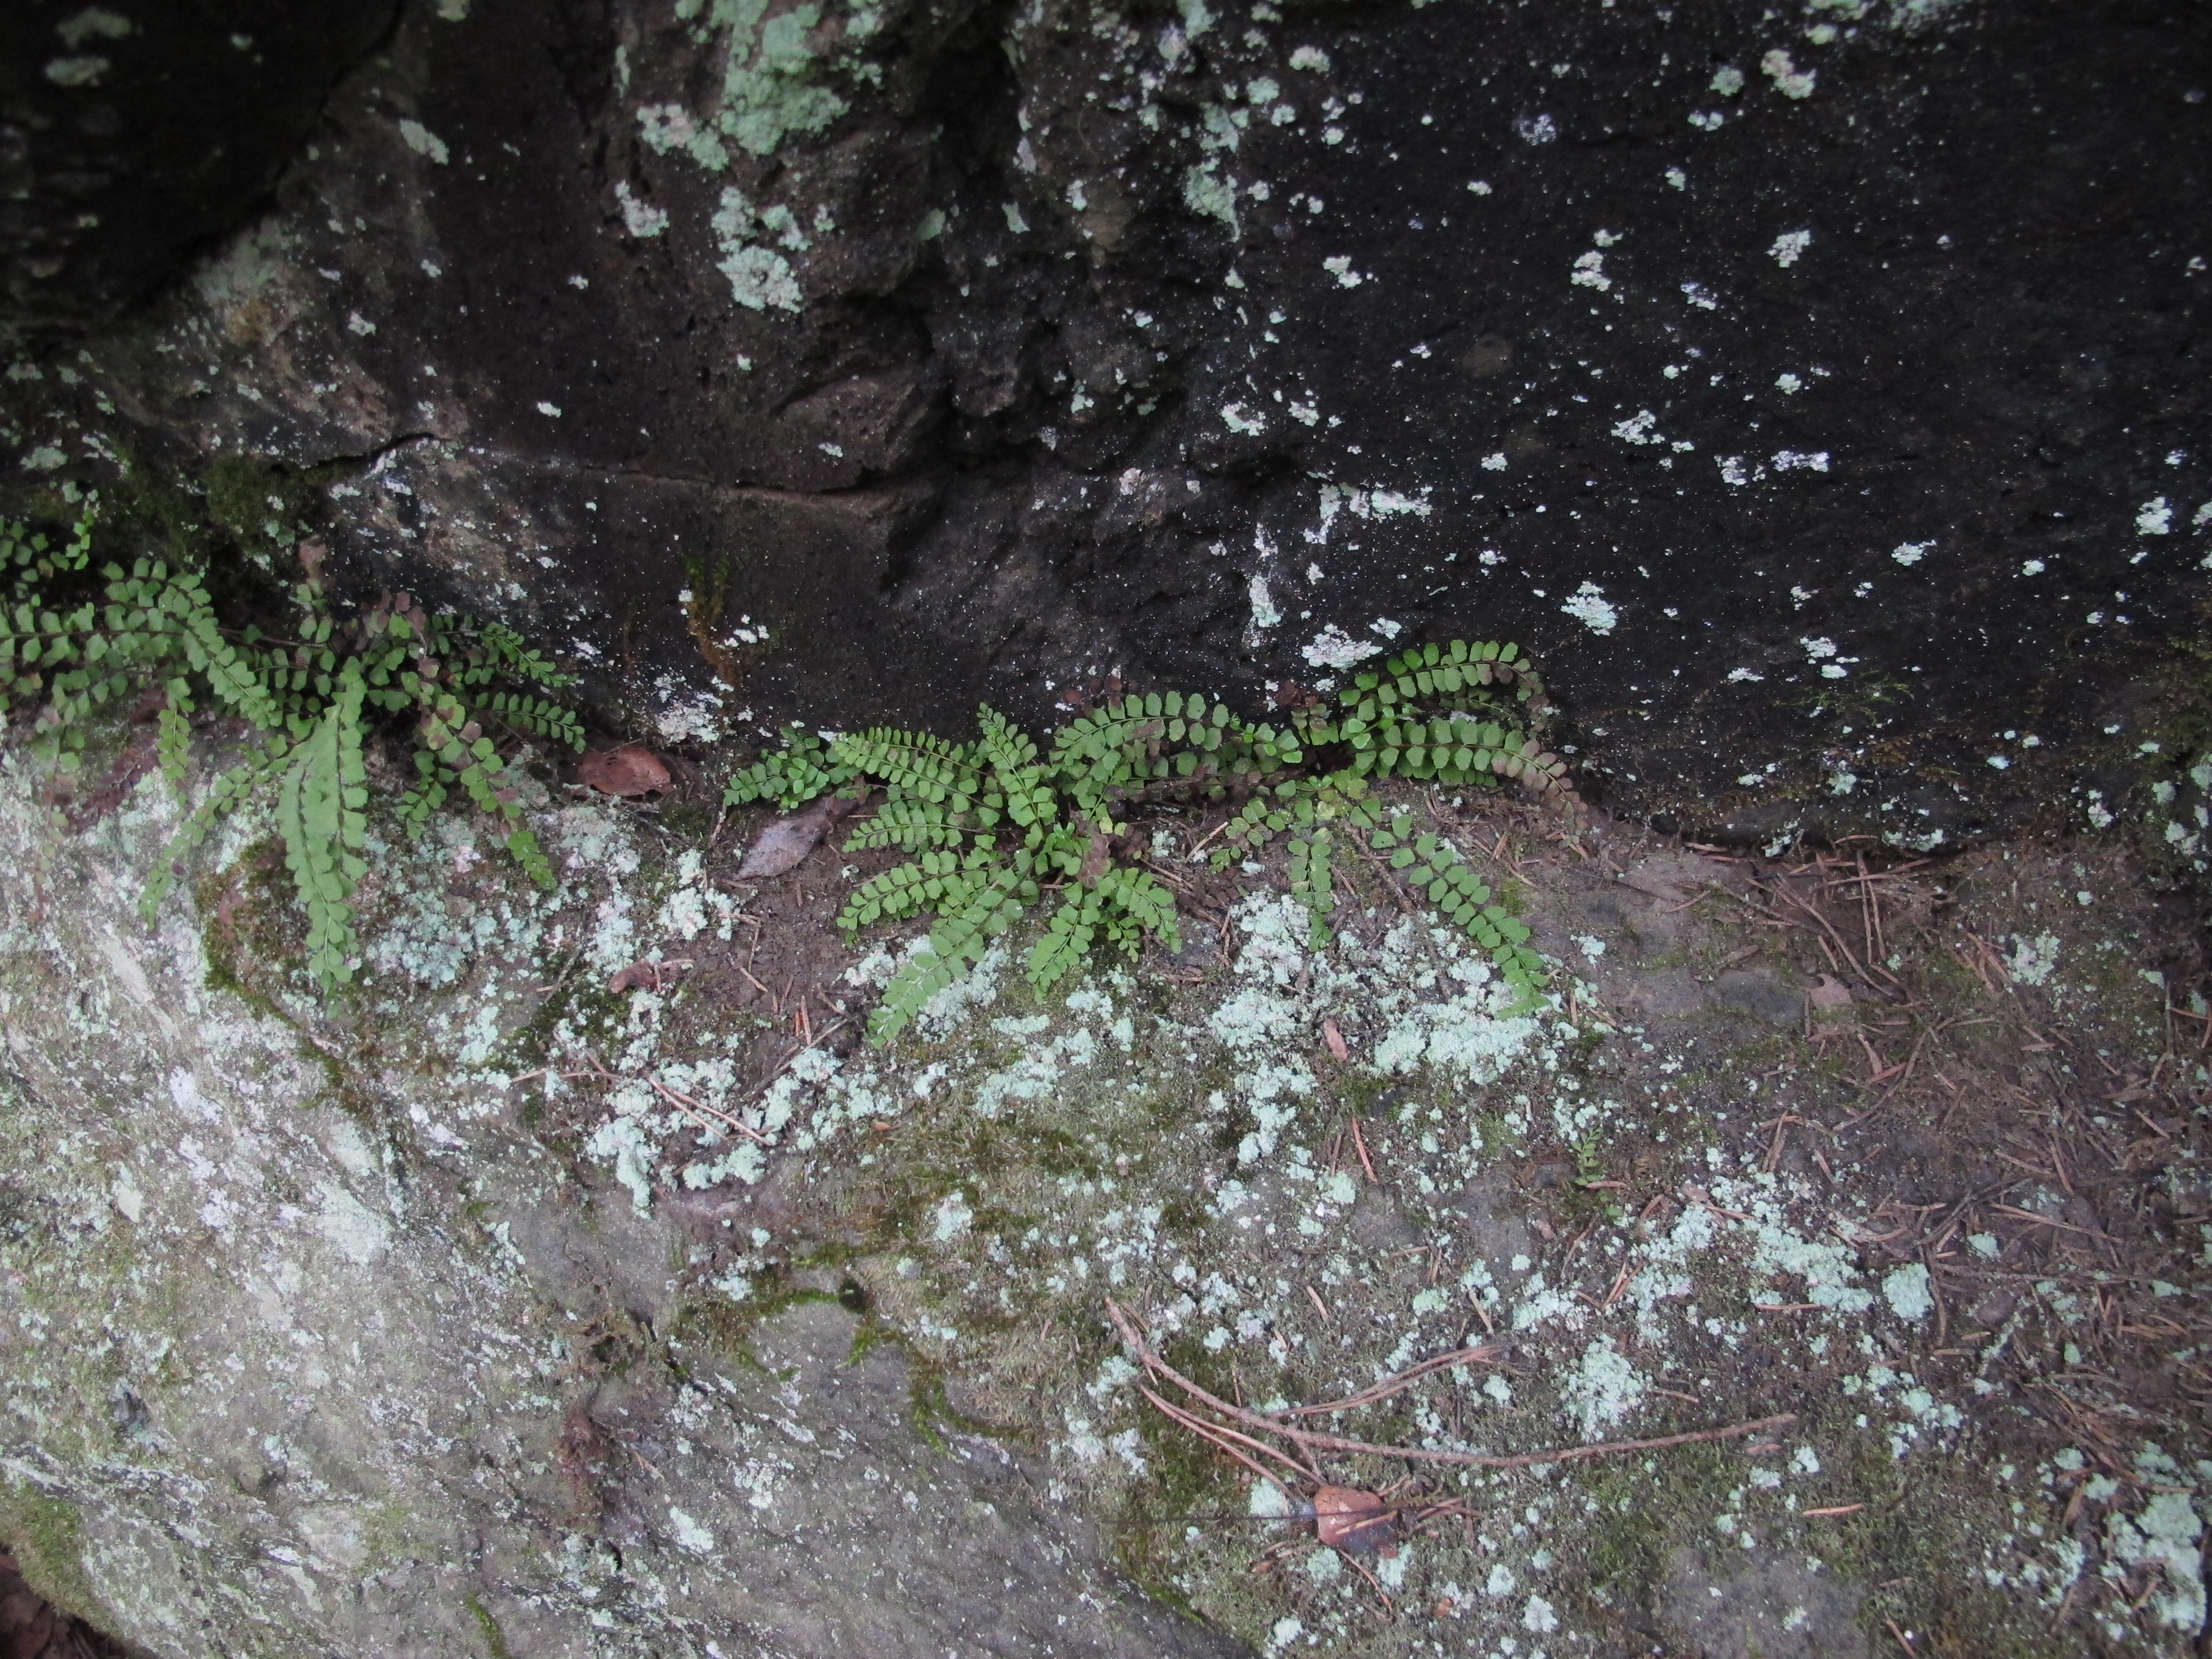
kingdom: Plantae
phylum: Tracheophyta
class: Polypodiopsida
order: Polypodiales
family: Aspleniaceae
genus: Asplenium
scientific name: Asplenium adulterinum
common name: Adulterated spleenwort
